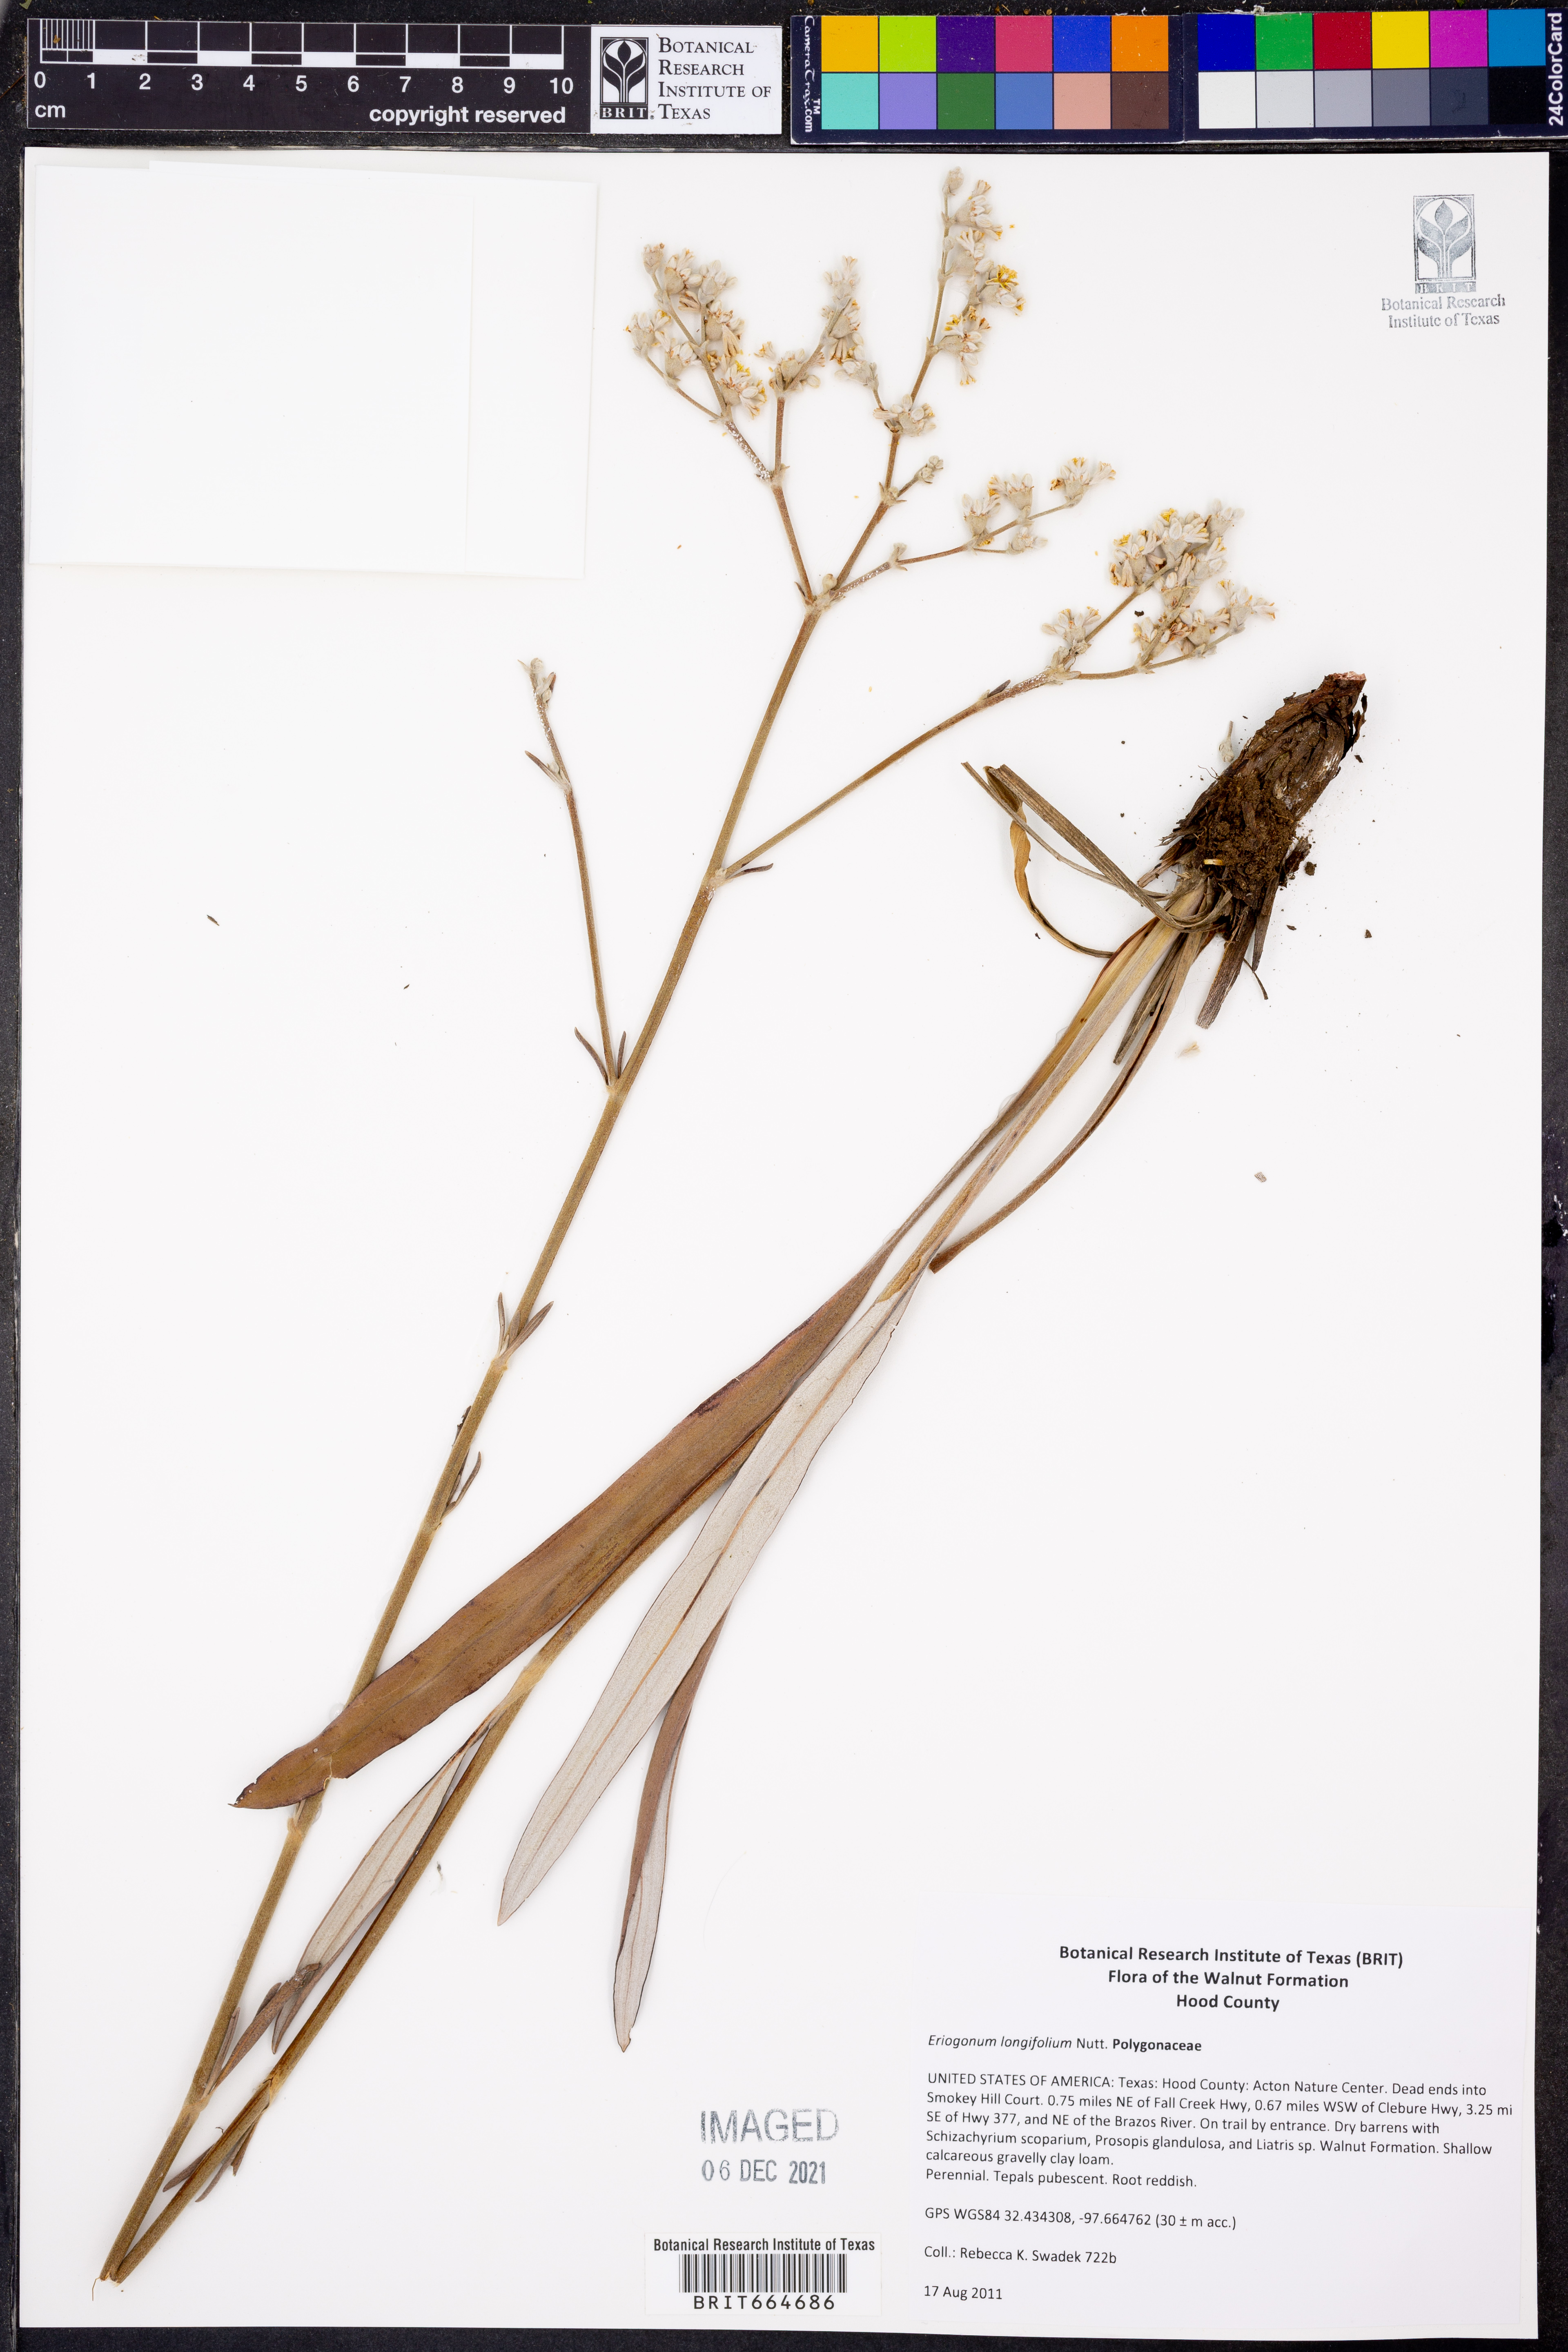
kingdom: Plantae
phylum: Tracheophyta
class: Magnoliopsida
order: Caryophyllales
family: Polygonaceae
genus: Eriogonum
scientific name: Eriogonum longifolium
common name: Longleaf wild buckwheat
